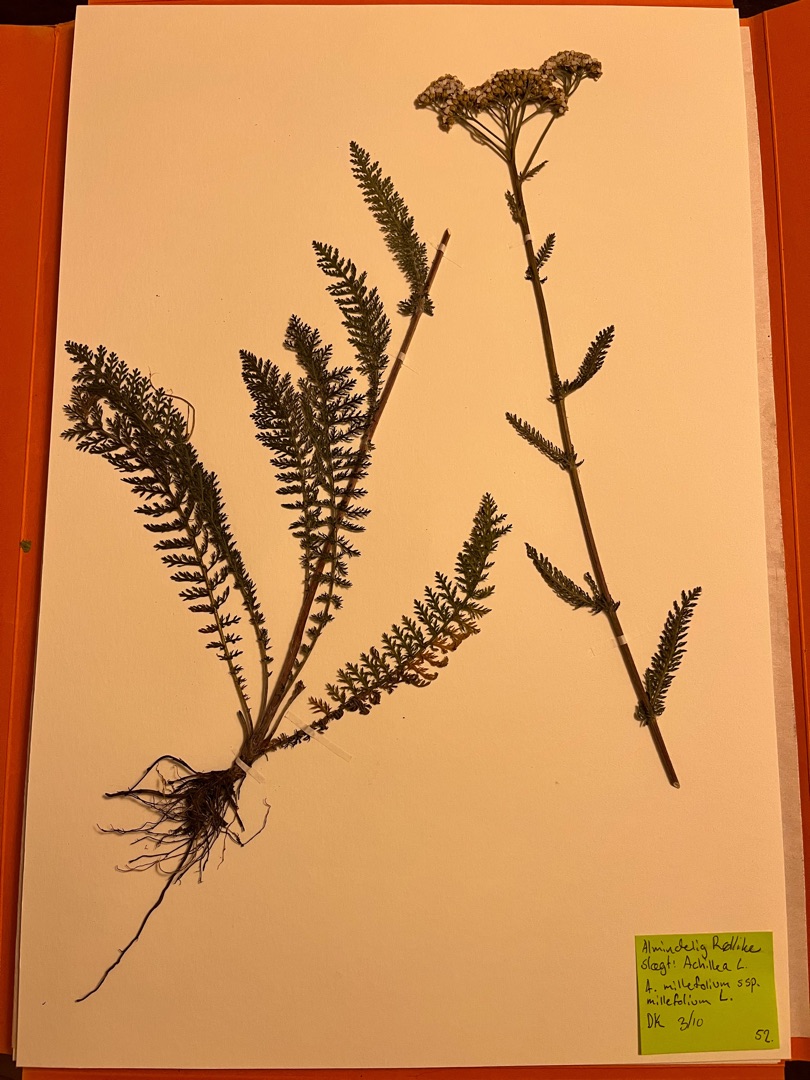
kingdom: Plantae
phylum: Tracheophyta
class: Magnoliopsida
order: Asterales
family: Asteraceae
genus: Achillea
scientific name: Achillea millefolium
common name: Almindelig røllike
